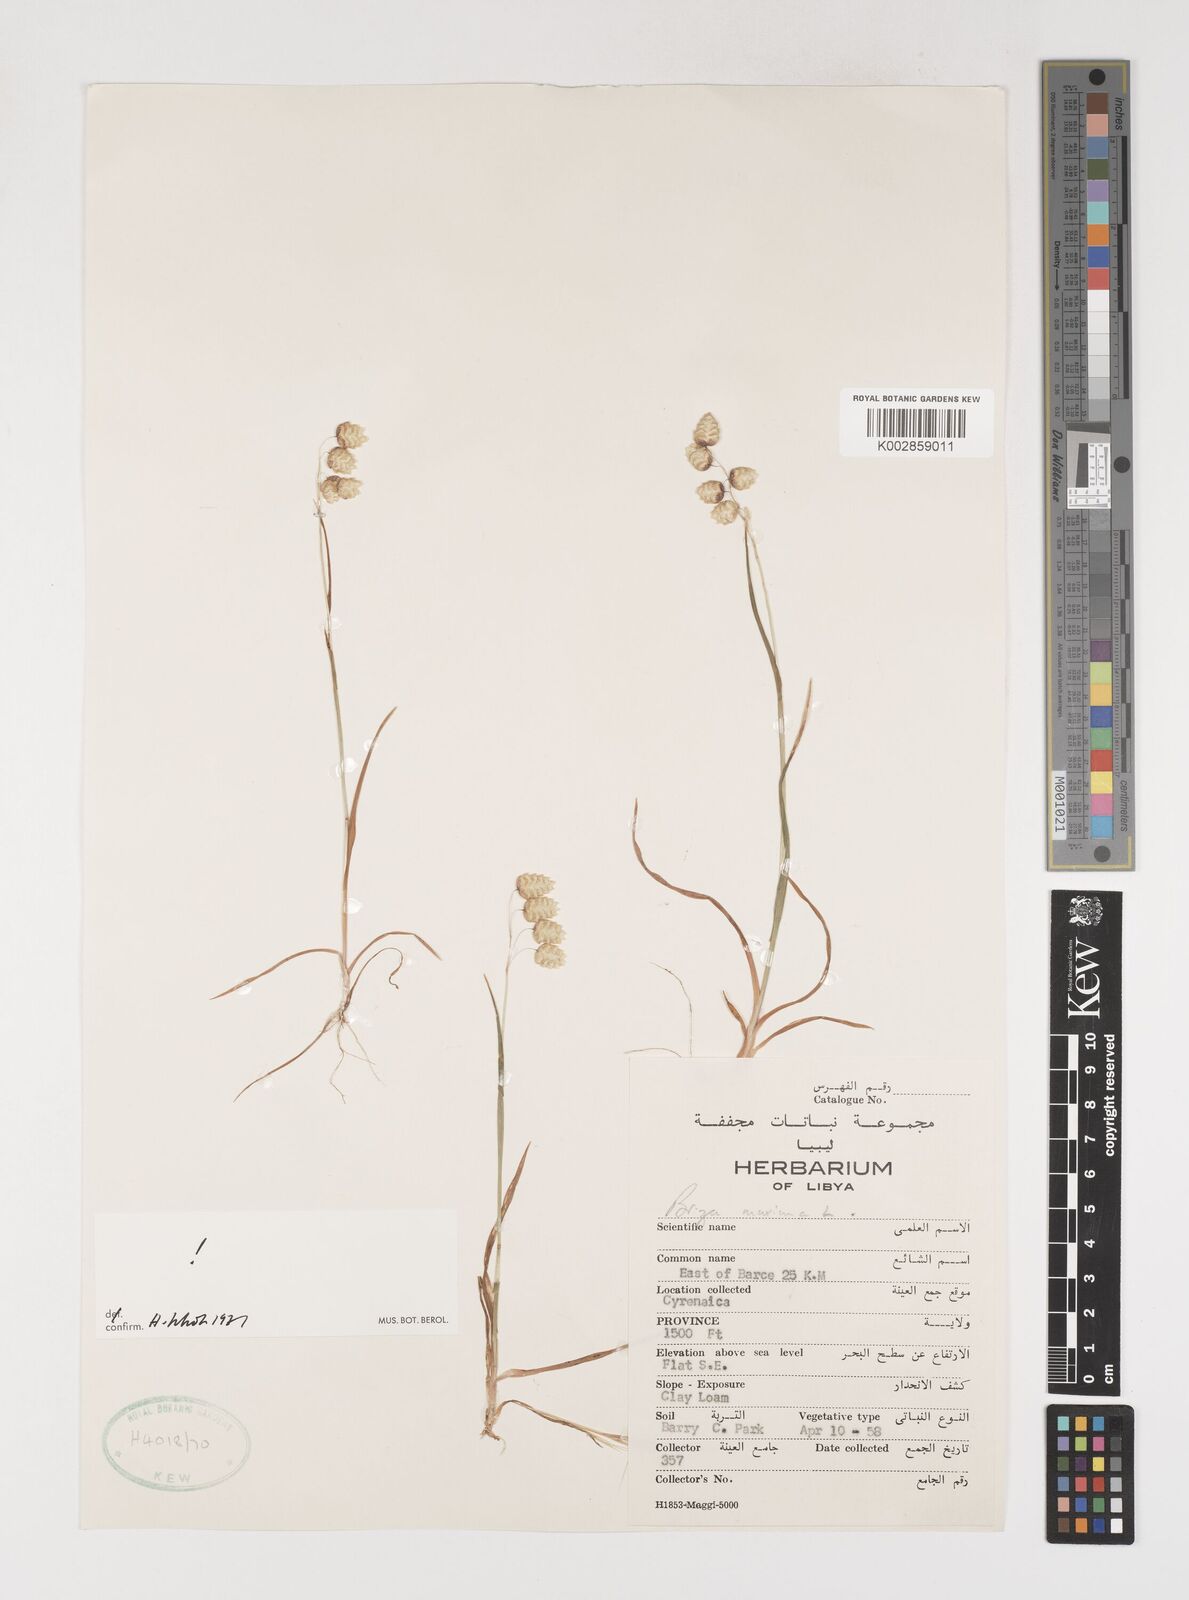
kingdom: Plantae
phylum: Tracheophyta
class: Liliopsida
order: Poales
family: Poaceae
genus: Briza
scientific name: Briza maxima
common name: Big quakinggrass
